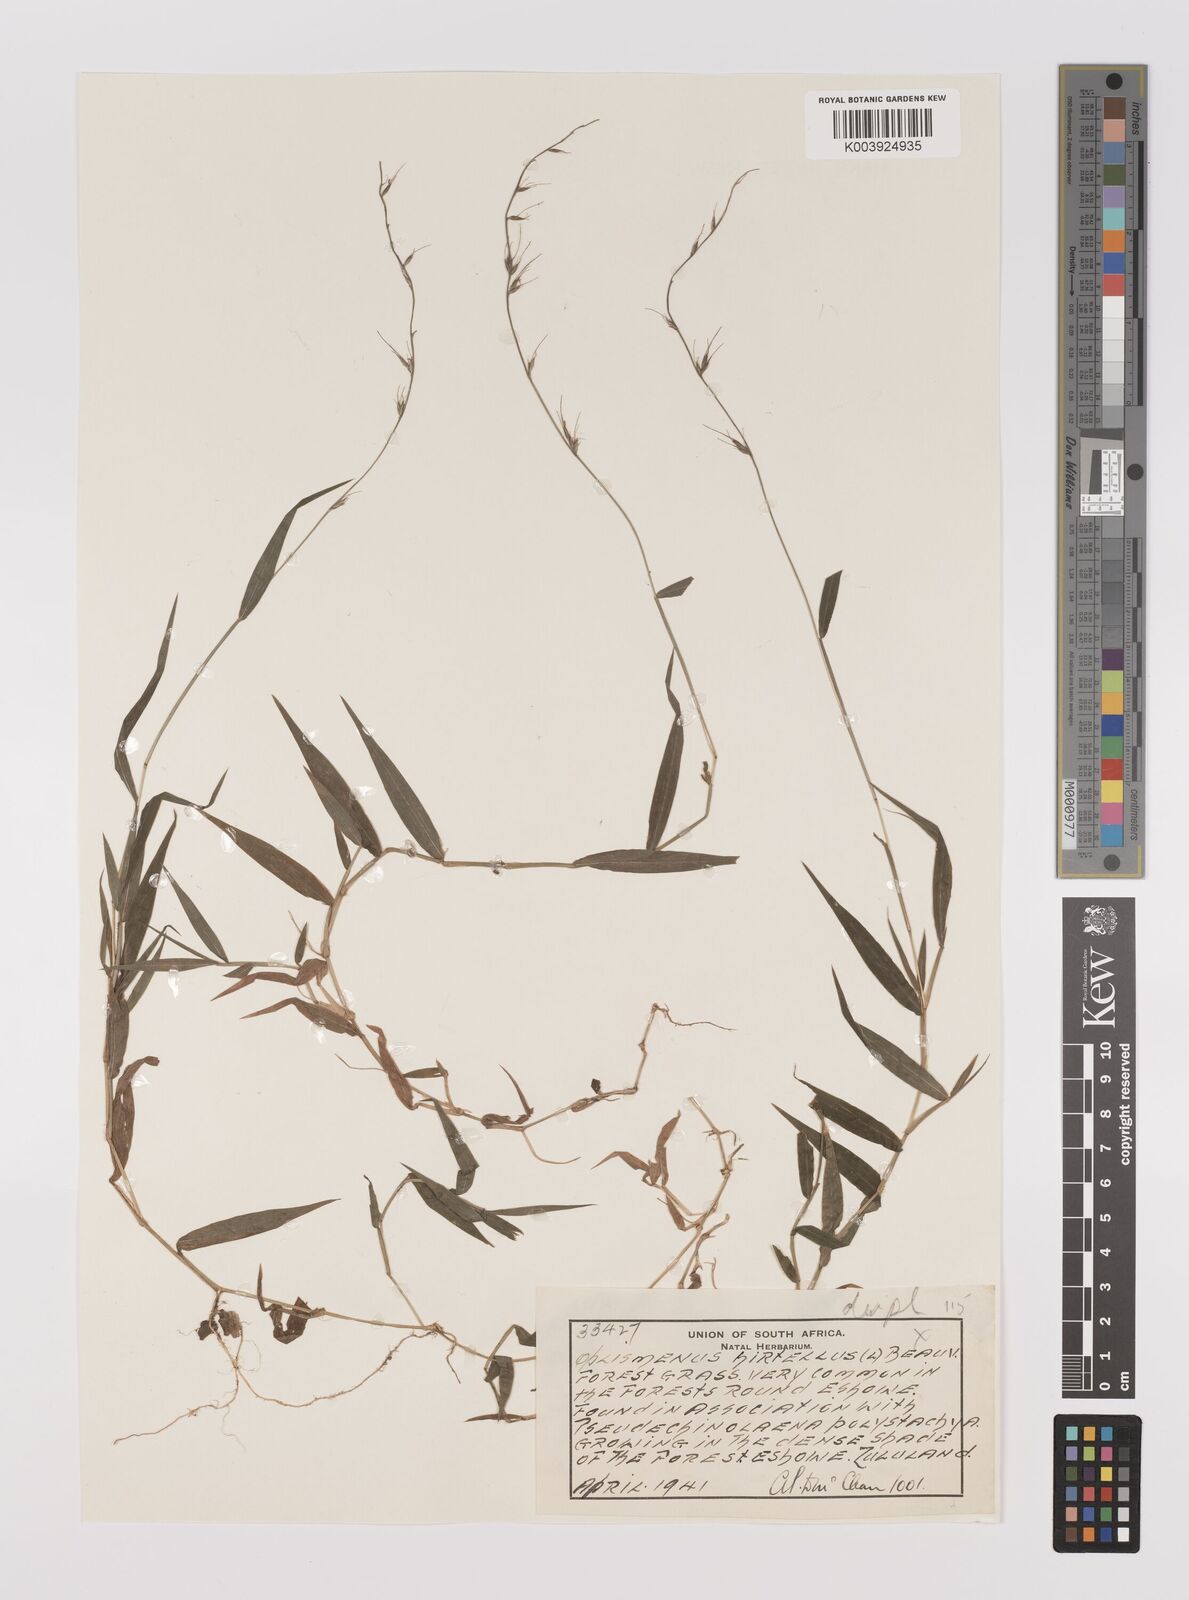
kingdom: Plantae
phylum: Tracheophyta
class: Liliopsida
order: Poales
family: Poaceae
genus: Oplismenus
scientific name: Oplismenus undulatifolius
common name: Wavyleaf basketgrass
